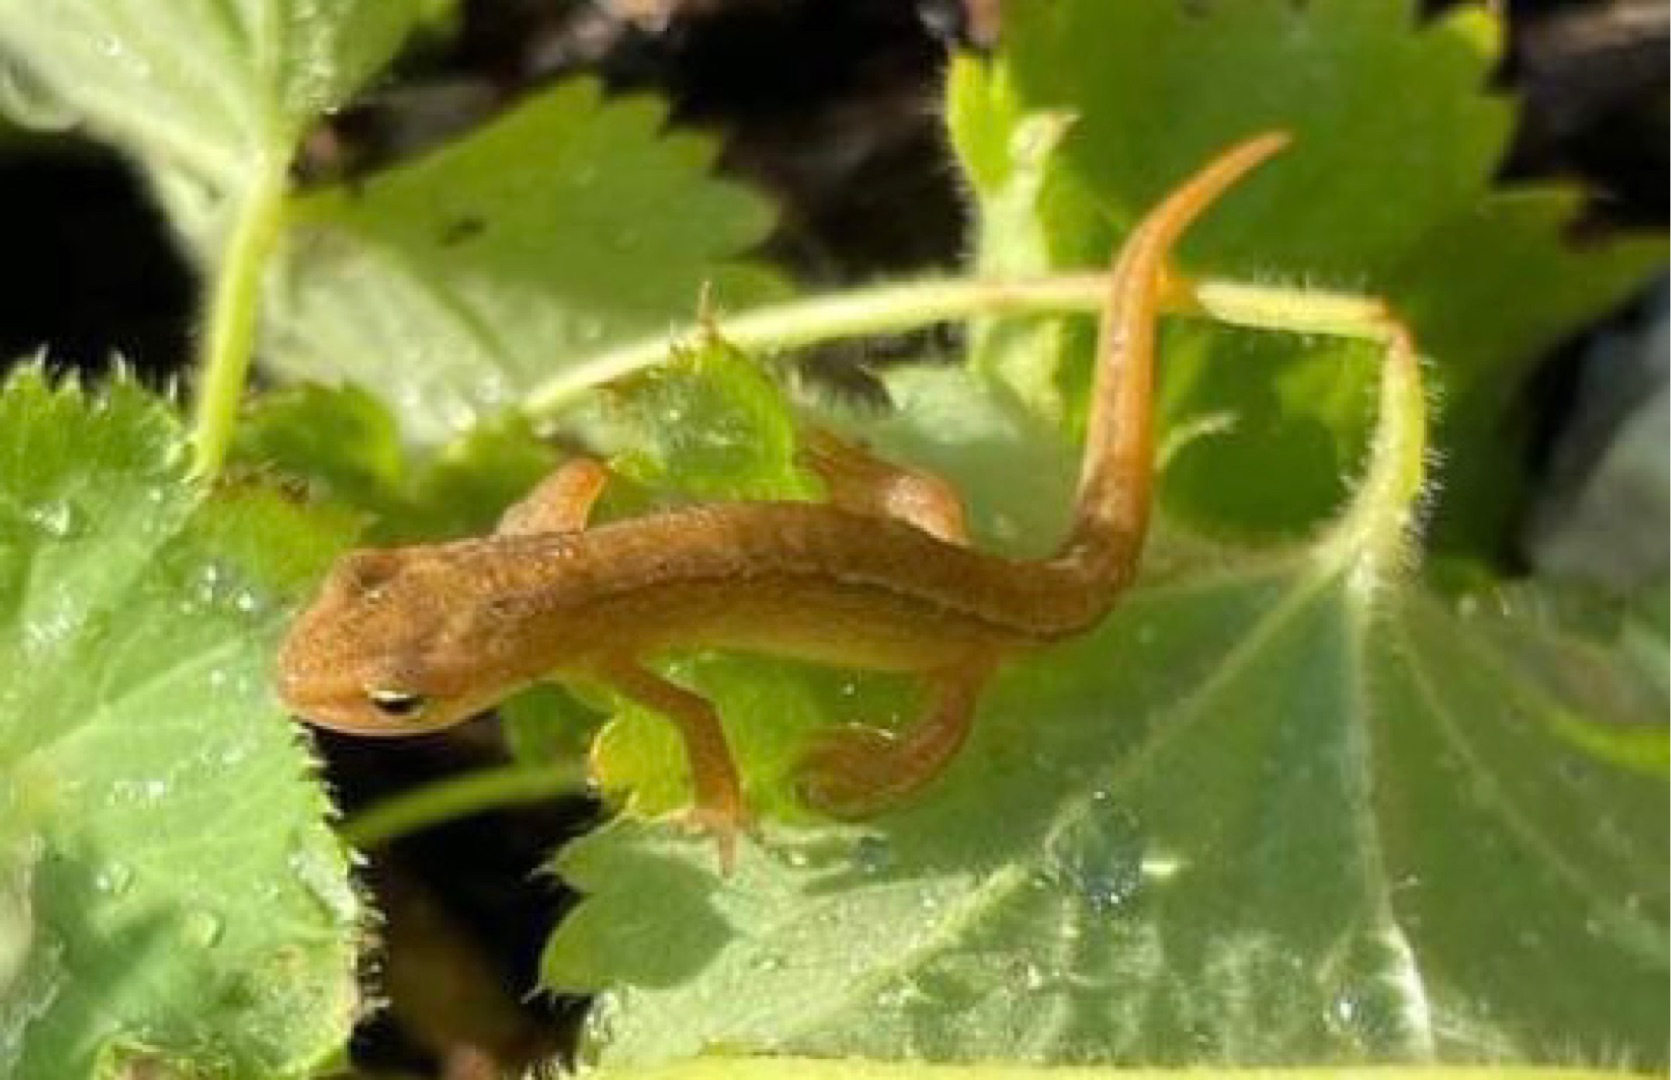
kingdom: Animalia
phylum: Chordata
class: Amphibia
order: Caudata
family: Salamandridae
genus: Lissotriton
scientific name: Lissotriton vulgaris
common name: Lille vandsalamander
